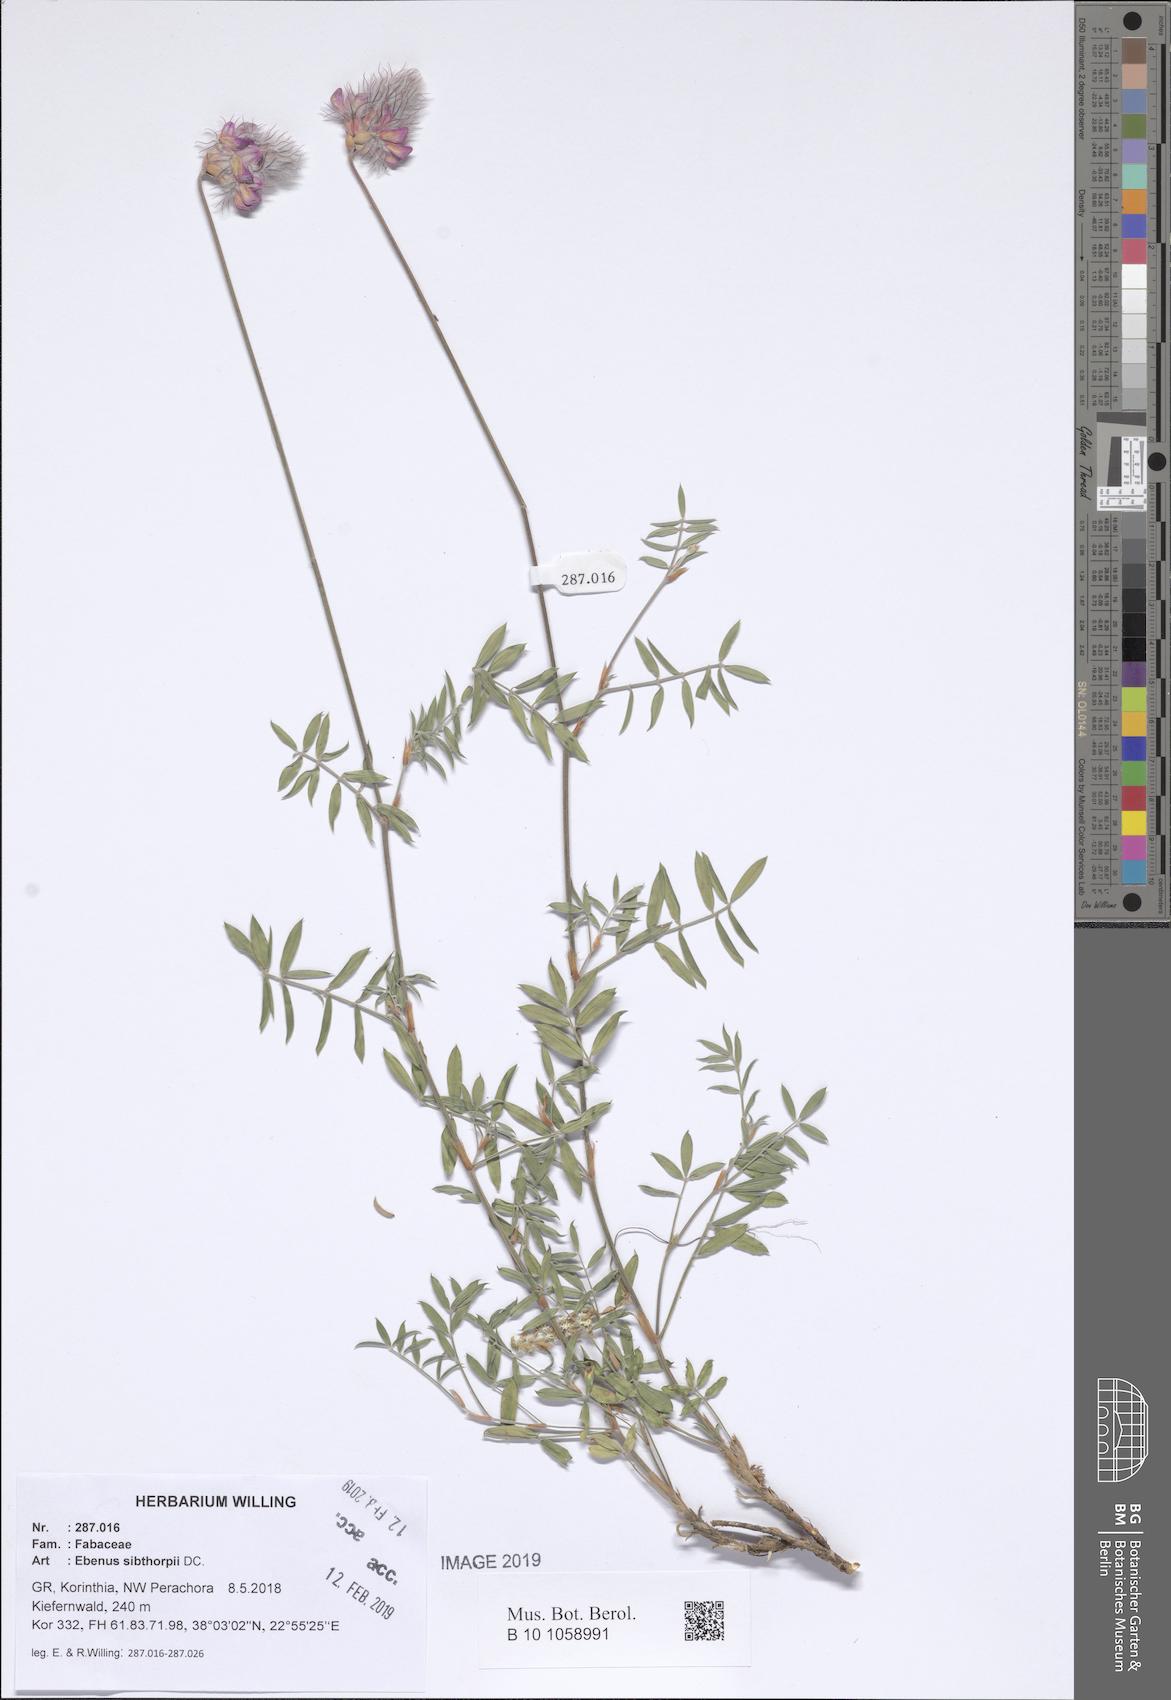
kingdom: Plantae
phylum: Tracheophyta
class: Magnoliopsida
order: Fabales
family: Fabaceae
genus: Ebenus
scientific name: Ebenus sibthorpii
